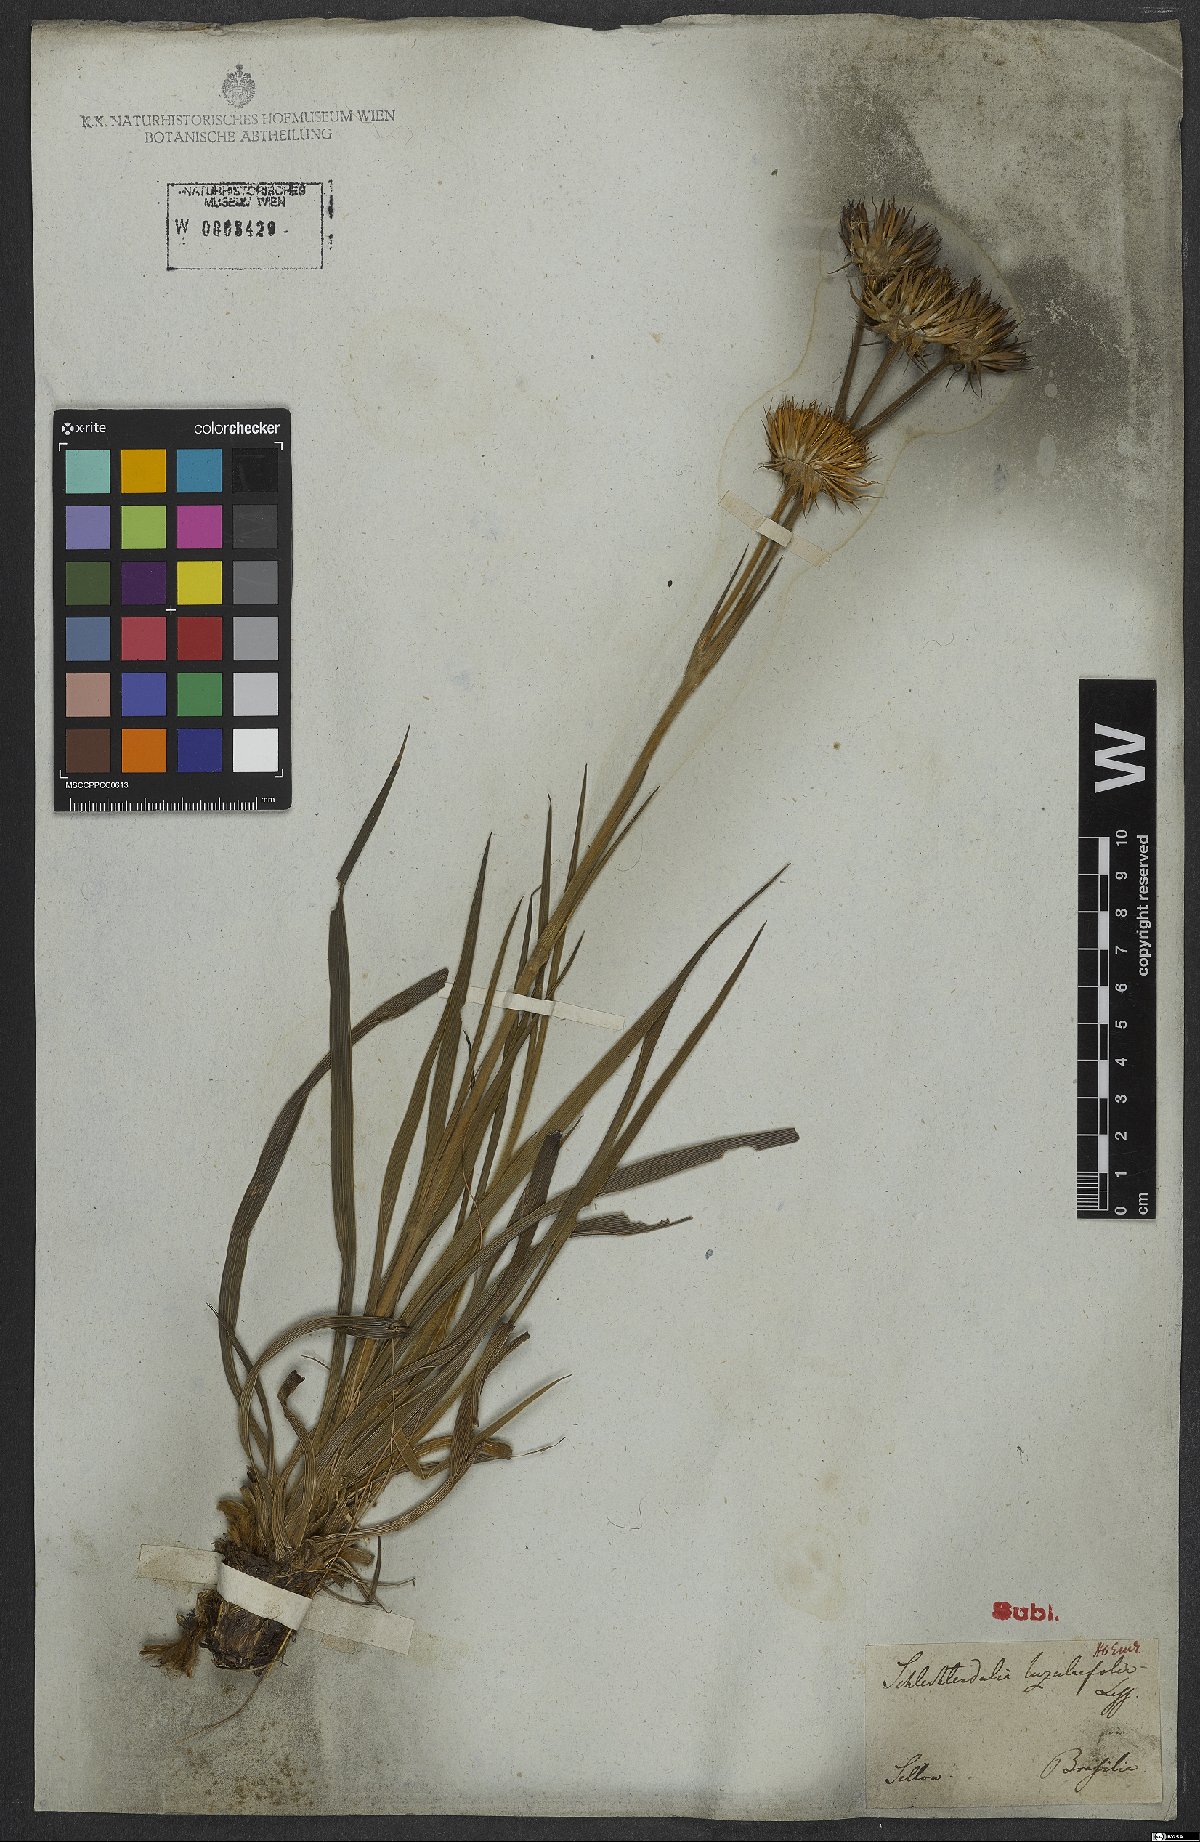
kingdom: Plantae
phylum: Tracheophyta
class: Magnoliopsida
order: Asterales
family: Asteraceae
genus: Schlechtendalia
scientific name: Schlechtendalia luzulifolia
